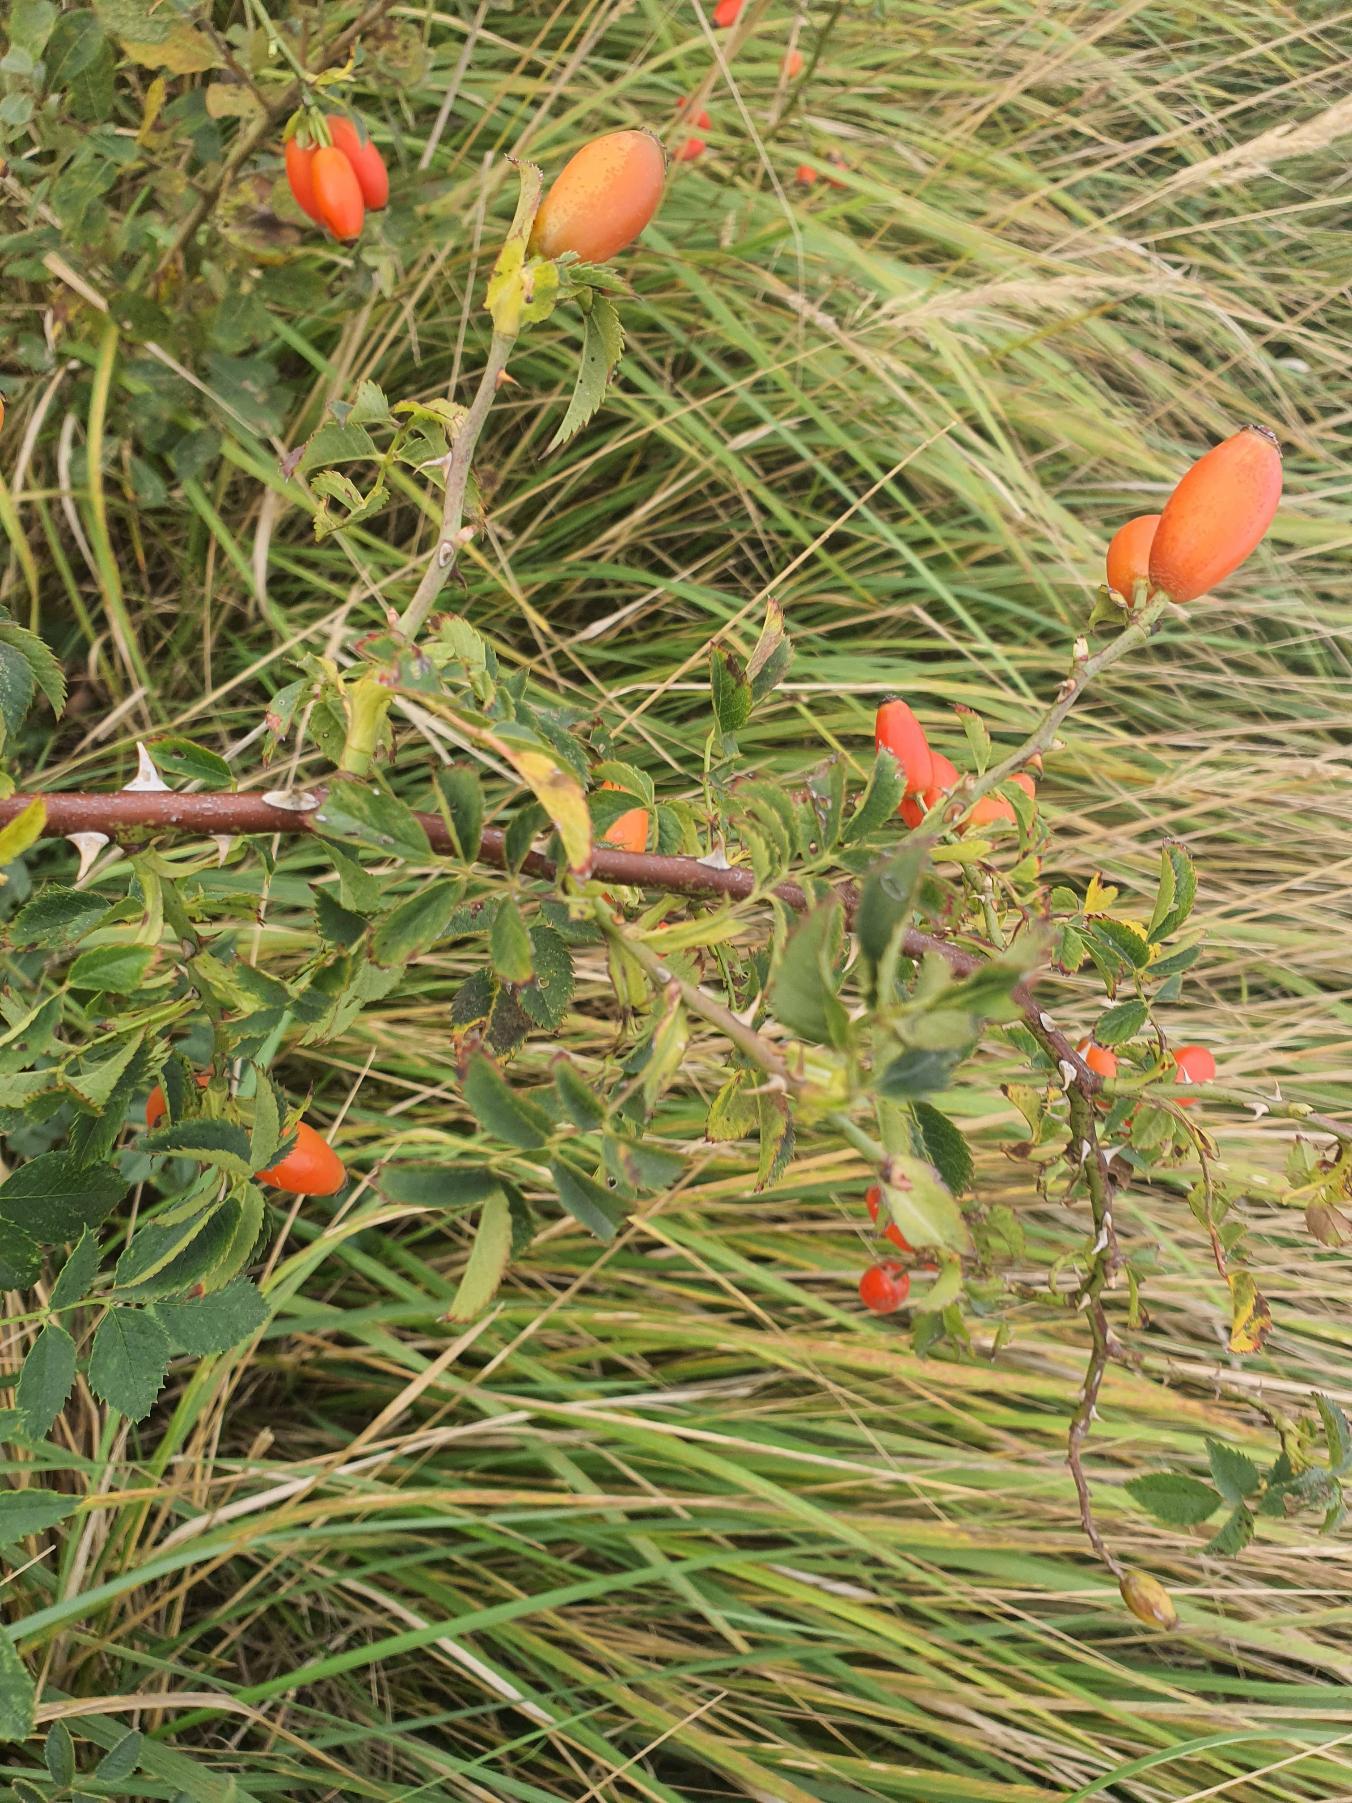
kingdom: Plantae
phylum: Tracheophyta
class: Magnoliopsida
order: Rosales
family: Rosaceae
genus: Rosa
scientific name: Rosa
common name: Roseslægten
